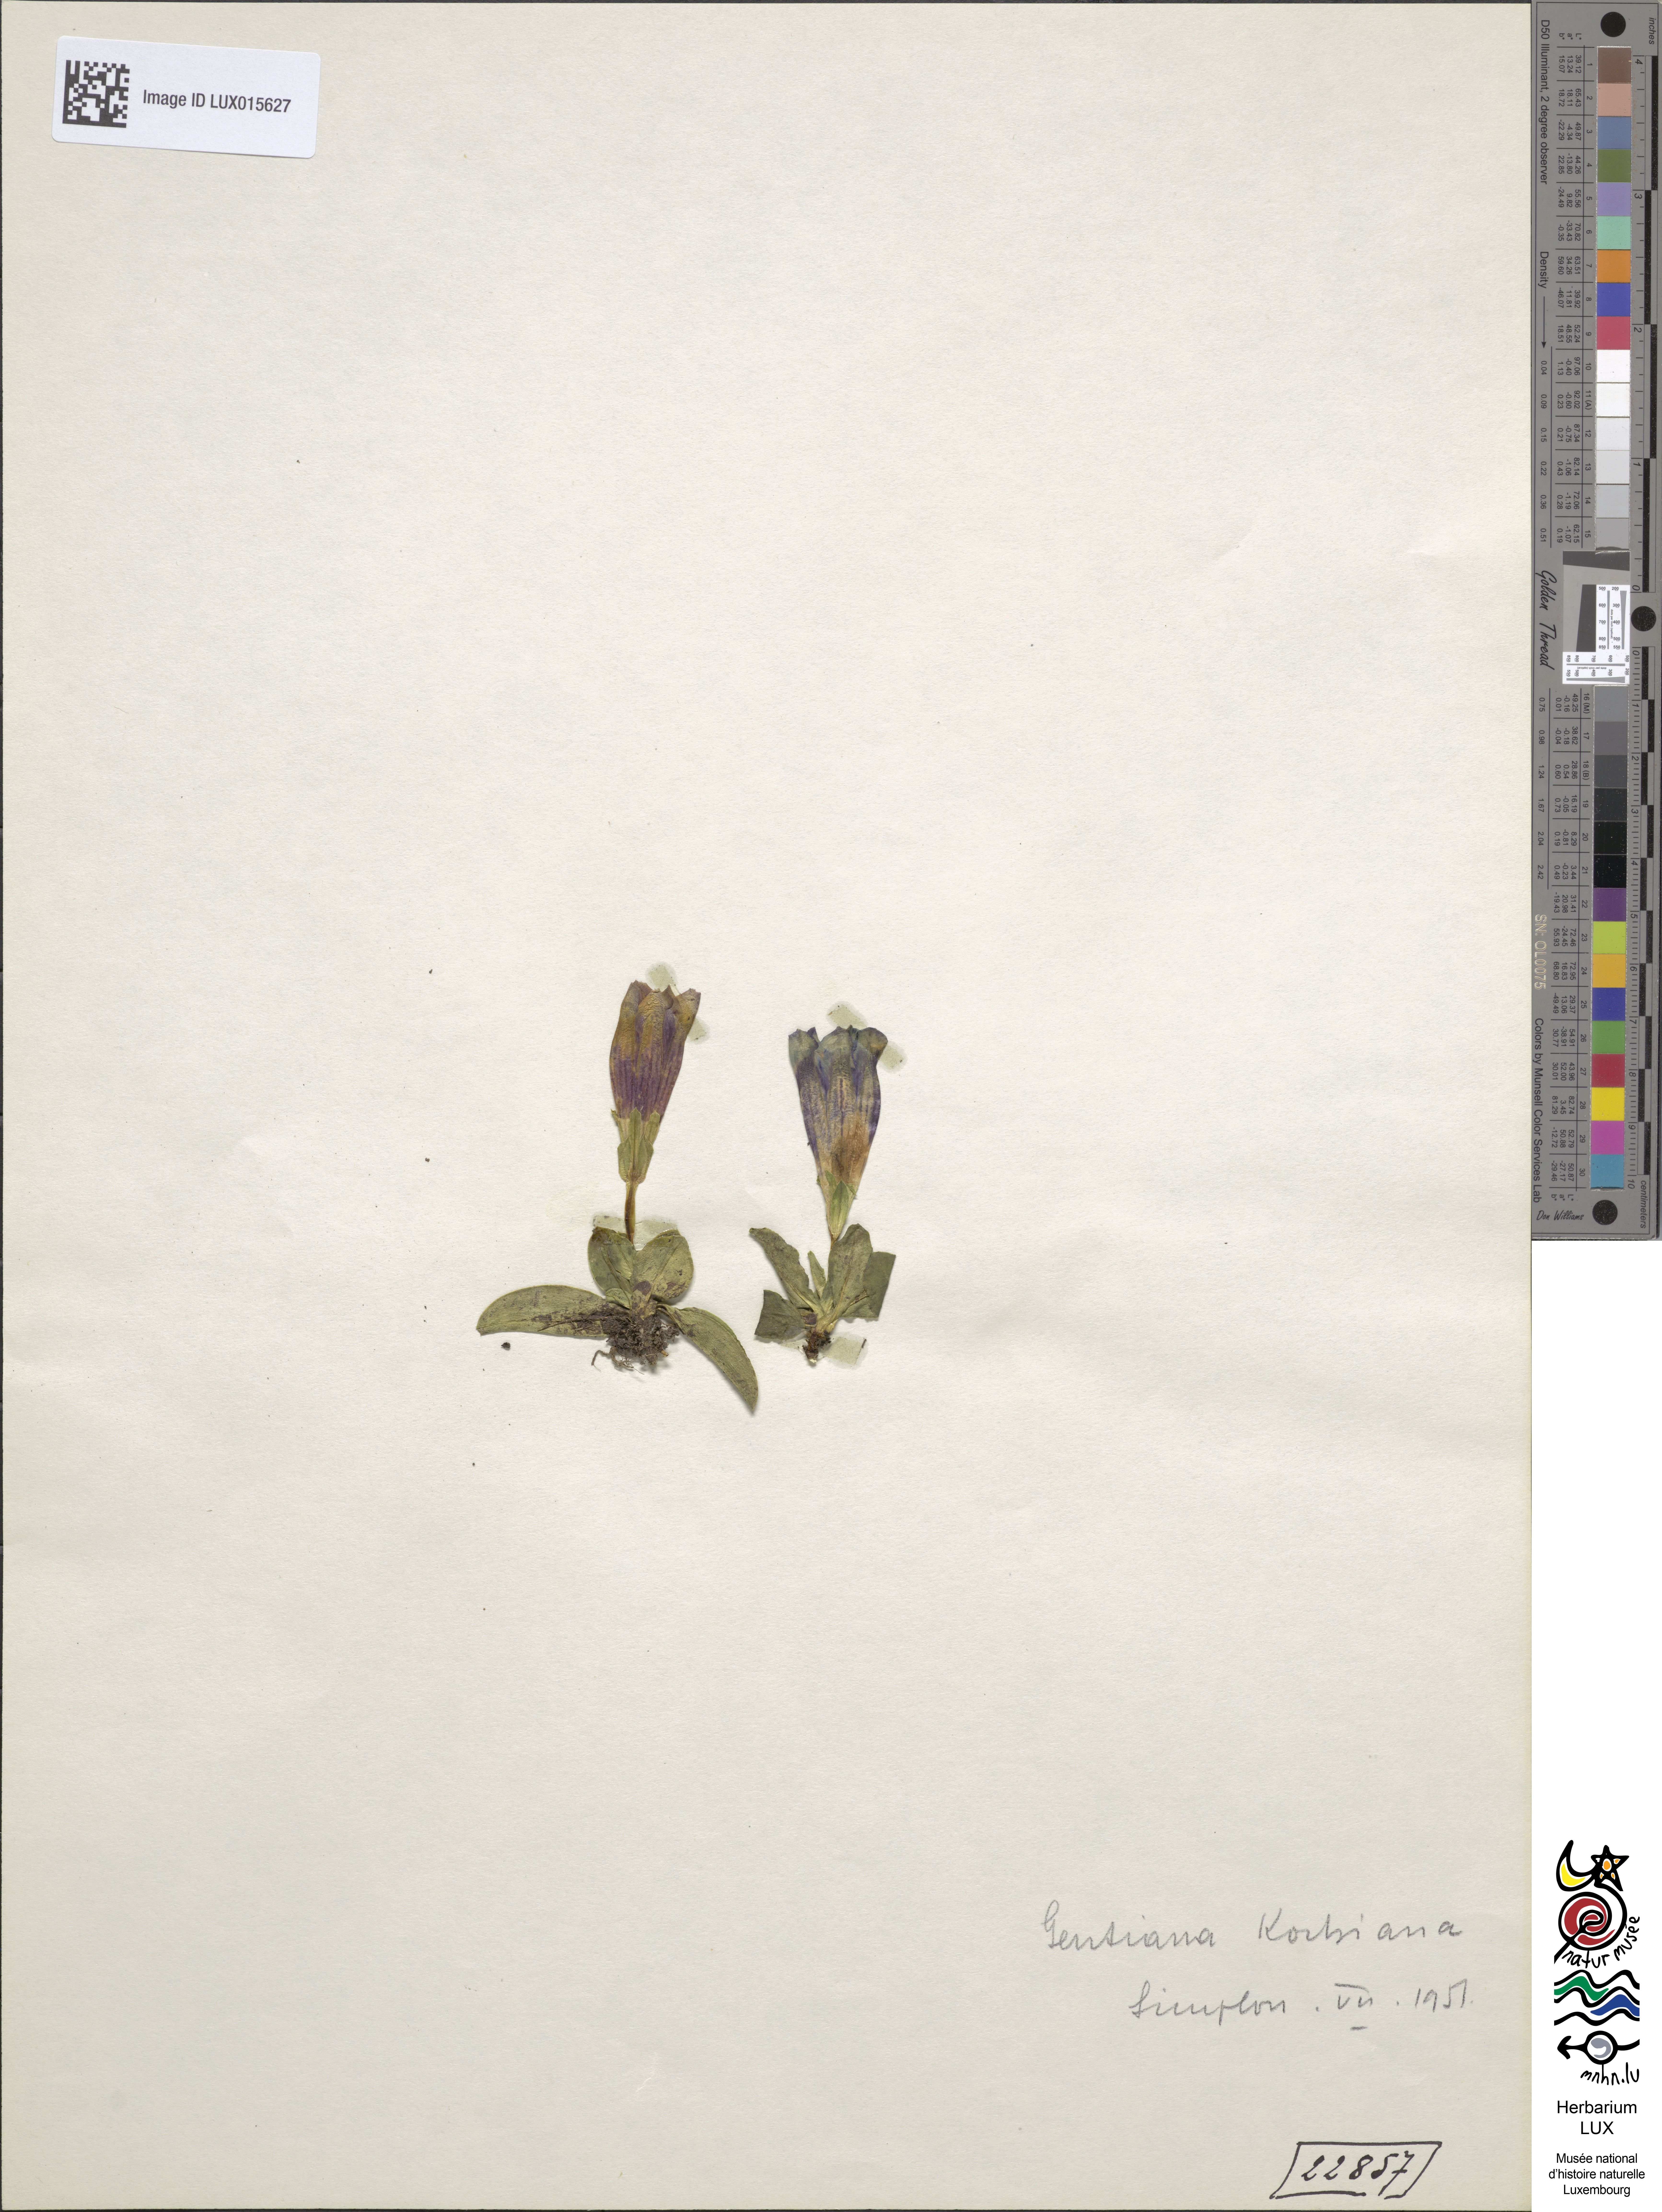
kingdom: Plantae
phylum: Tracheophyta
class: Magnoliopsida
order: Gentianales
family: Gentianaceae
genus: Gentiana
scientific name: Gentiana acaulis
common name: Trumpet gentian
